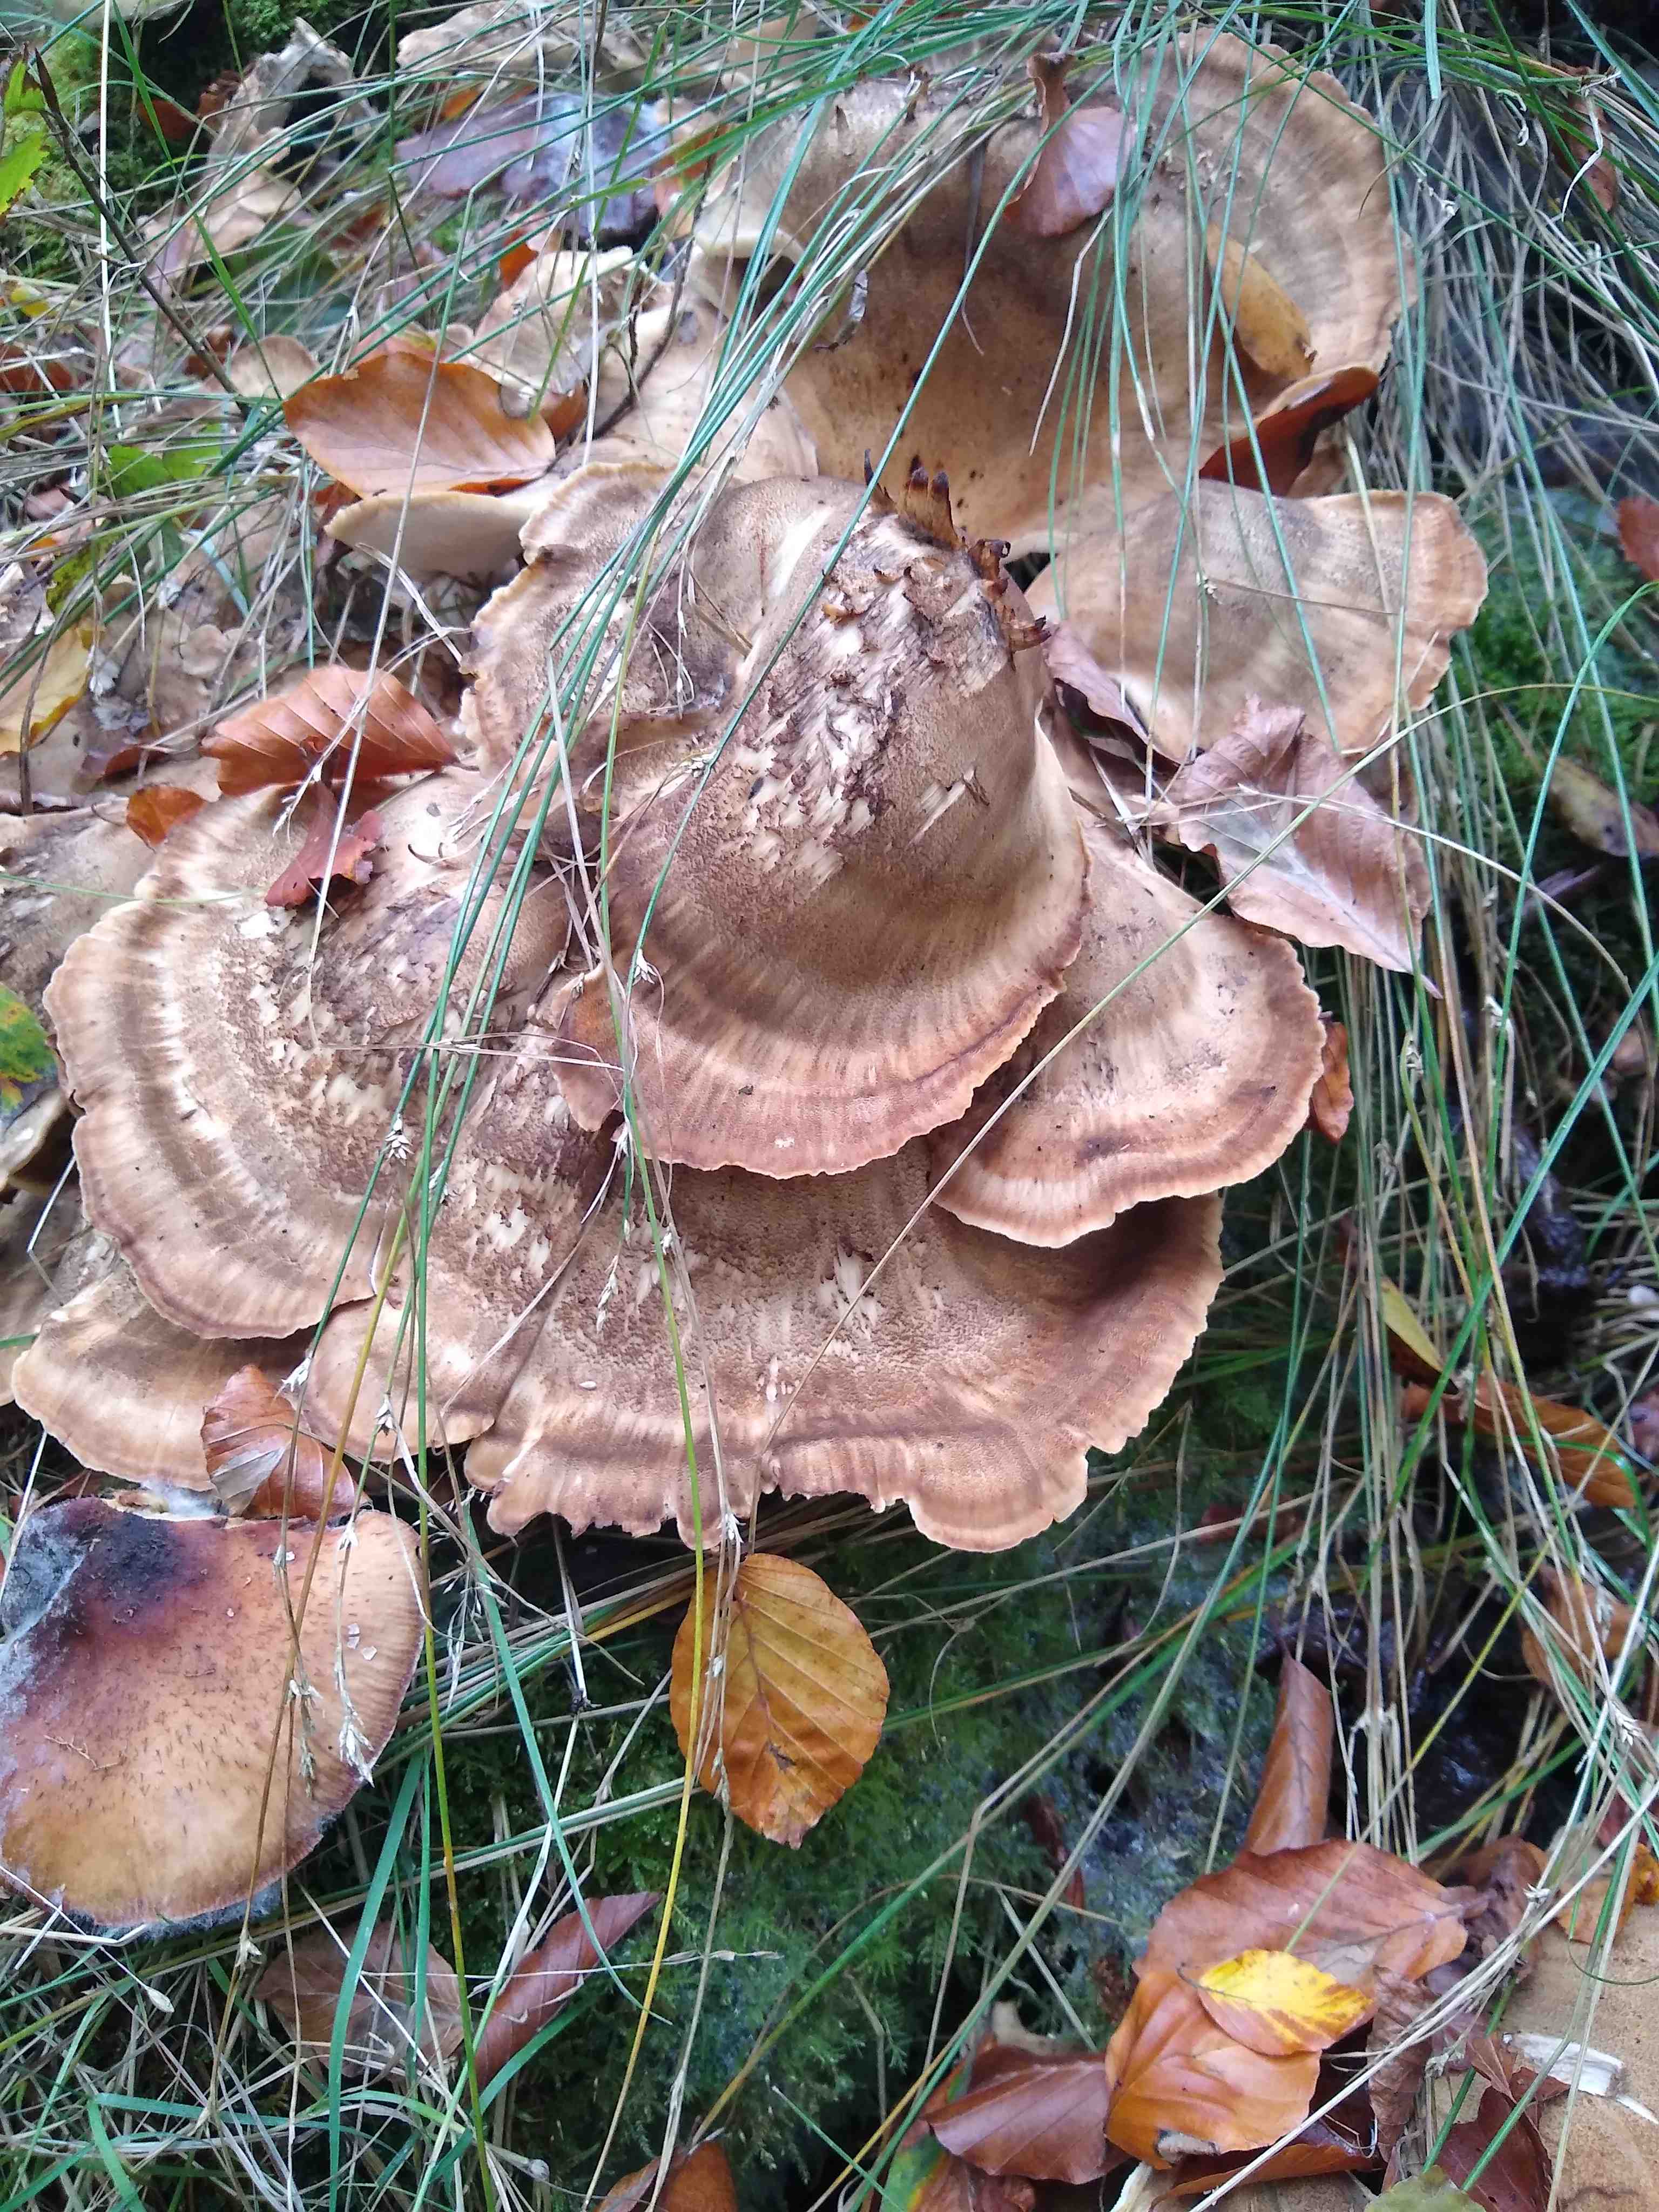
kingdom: Fungi
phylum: Basidiomycota
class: Agaricomycetes
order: Polyporales
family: Meripilaceae
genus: Meripilus
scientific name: Meripilus giganteus
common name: kæmpeporesvamp
